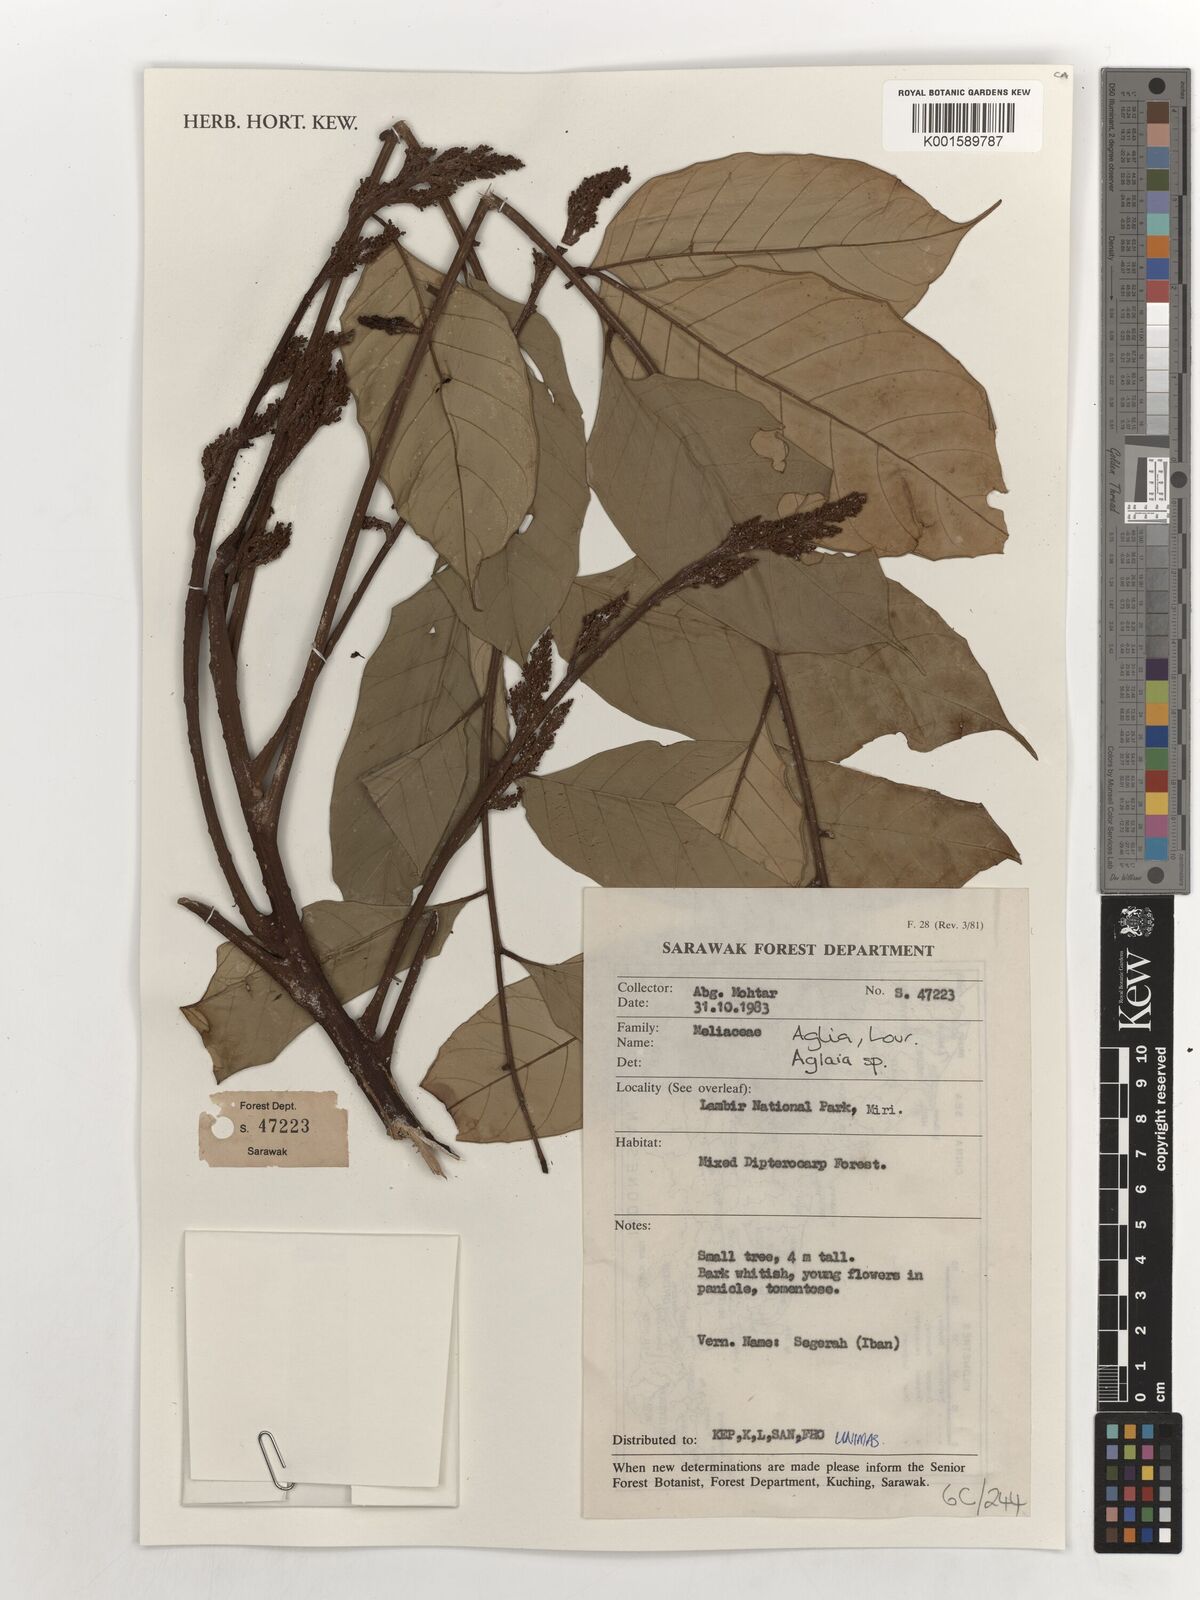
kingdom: Plantae
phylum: Tracheophyta
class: Magnoliopsida
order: Sapindales
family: Meliaceae
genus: Aglaia
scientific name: Aglaia
